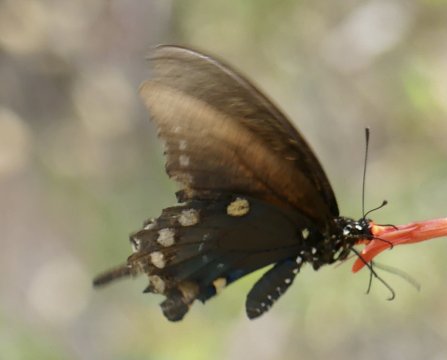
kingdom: Animalia
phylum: Arthropoda
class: Insecta
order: Lepidoptera
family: Papilionidae
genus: Battus
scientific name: Battus philenor
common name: Pipevine Swallowtail
